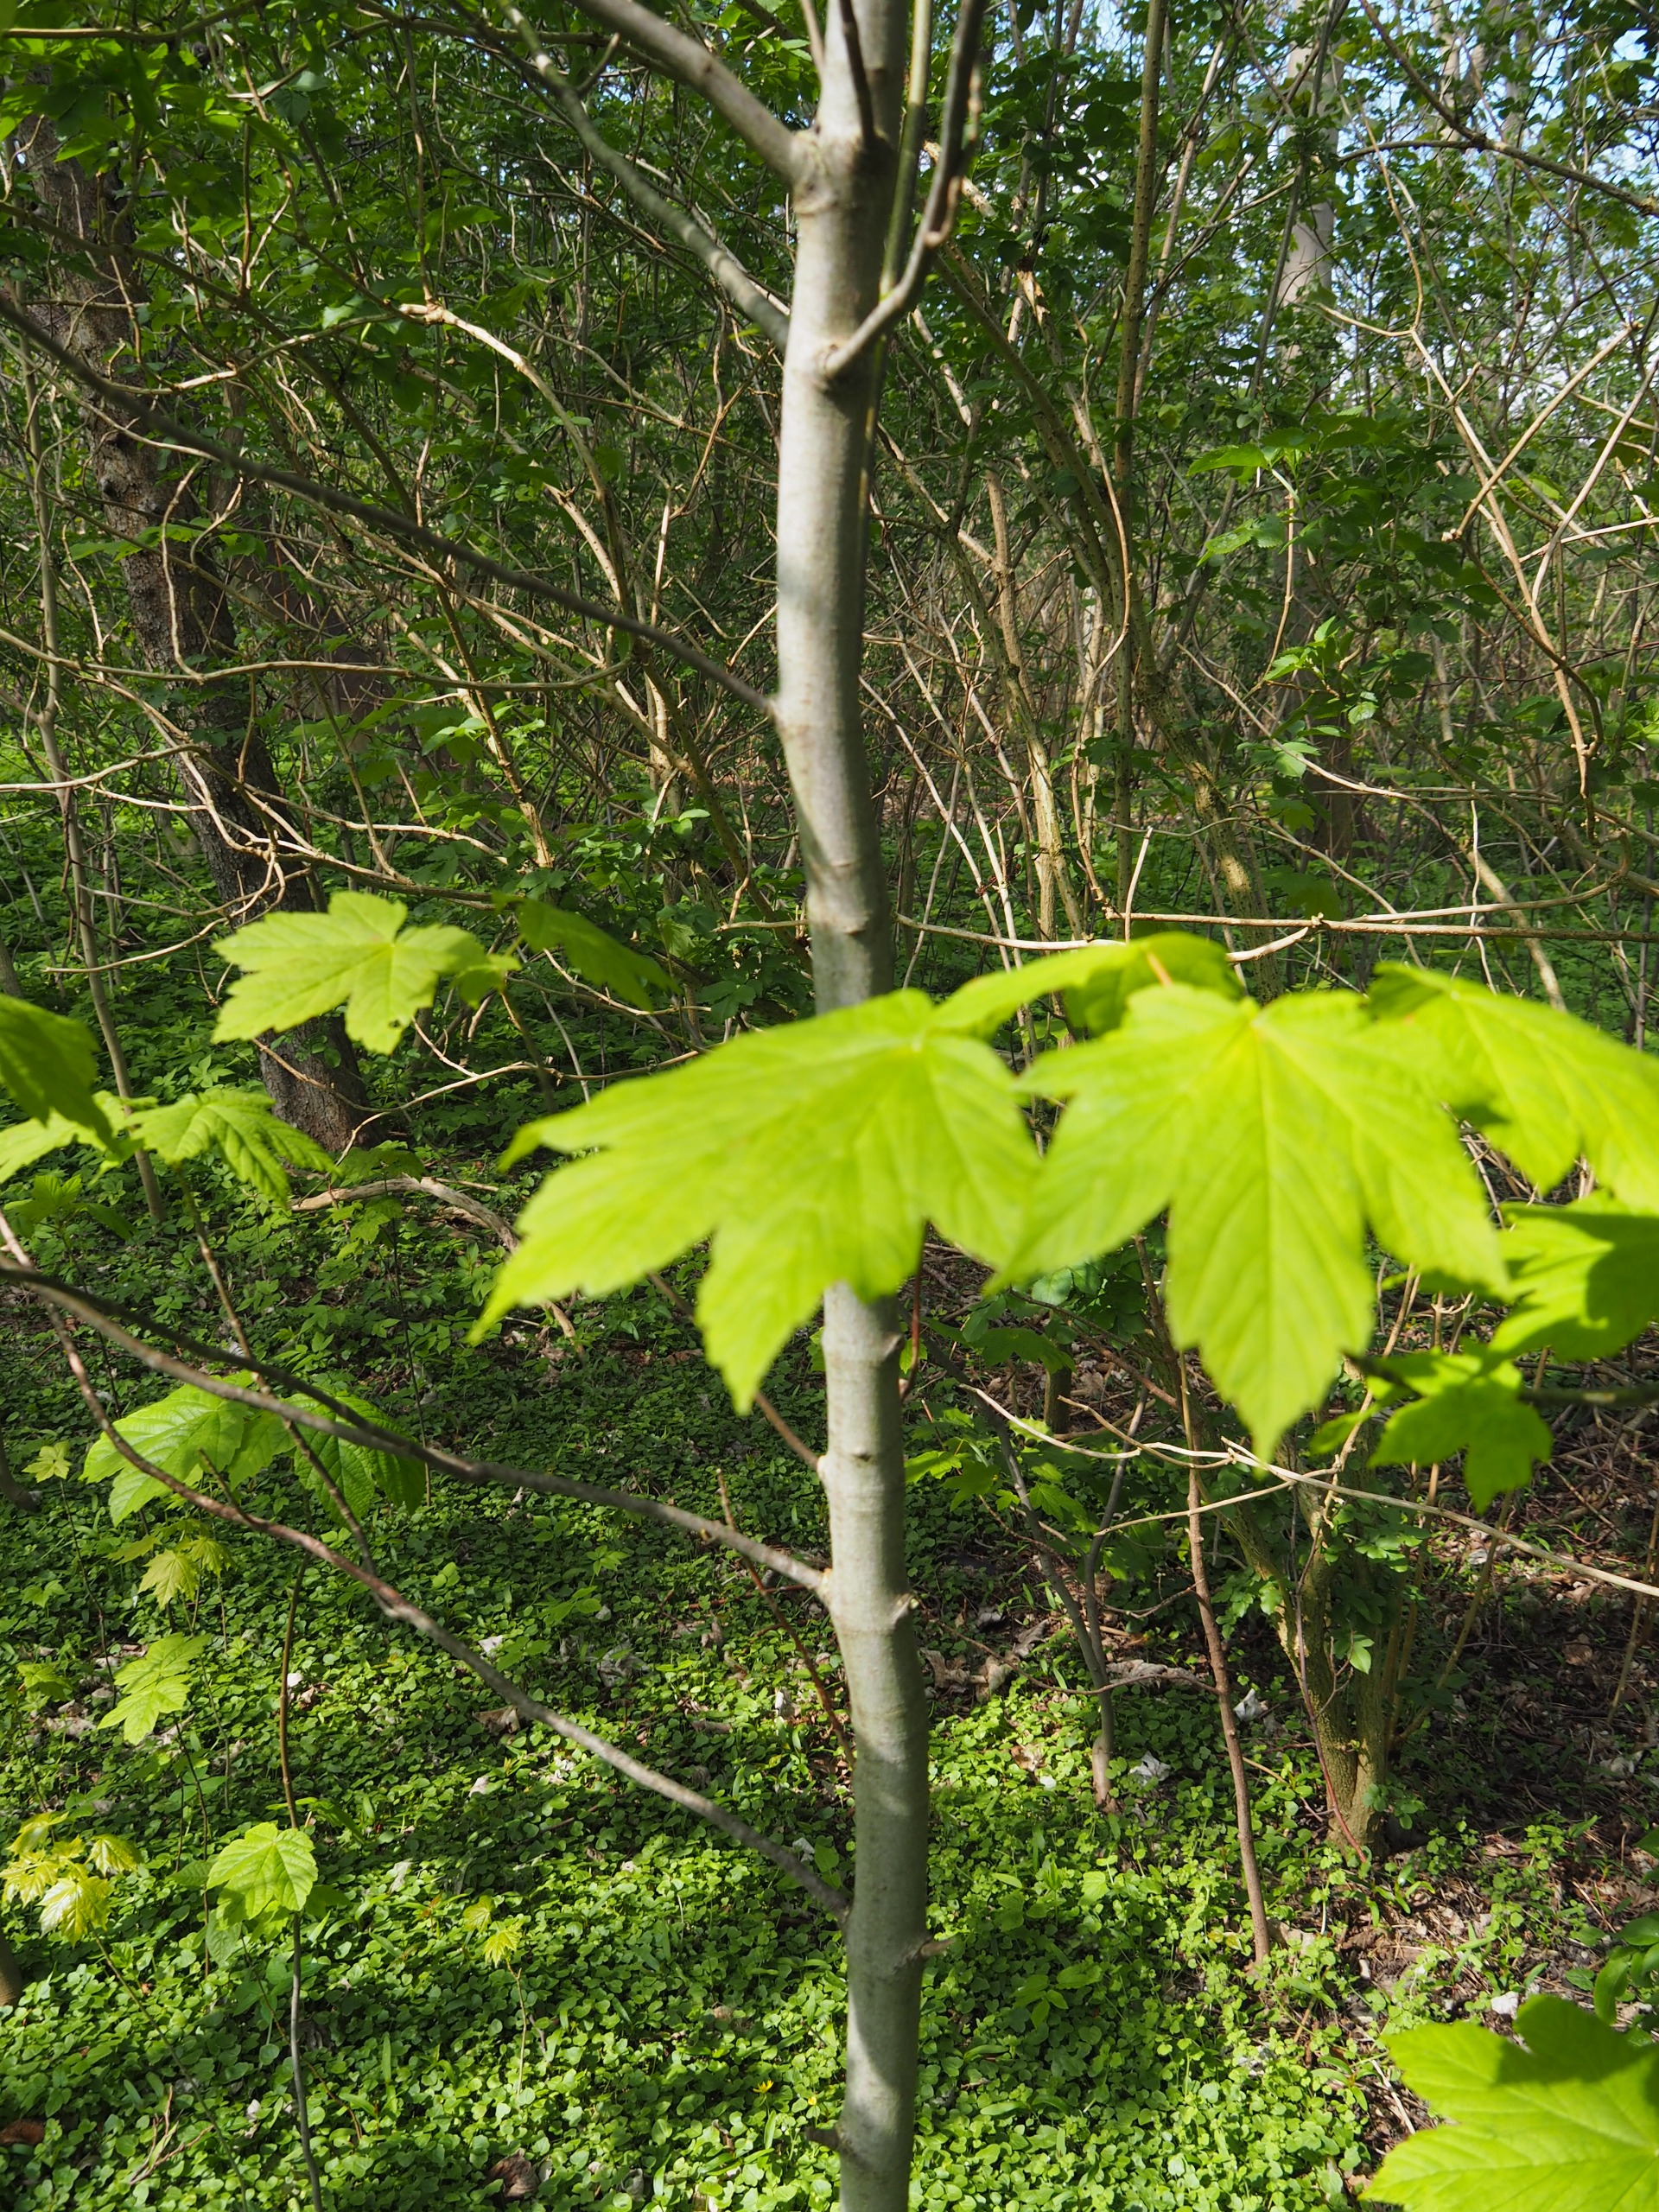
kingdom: Plantae
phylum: Tracheophyta
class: Magnoliopsida
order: Sapindales
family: Sapindaceae
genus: Acer
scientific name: Acer pseudoplatanus
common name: Ahorn
